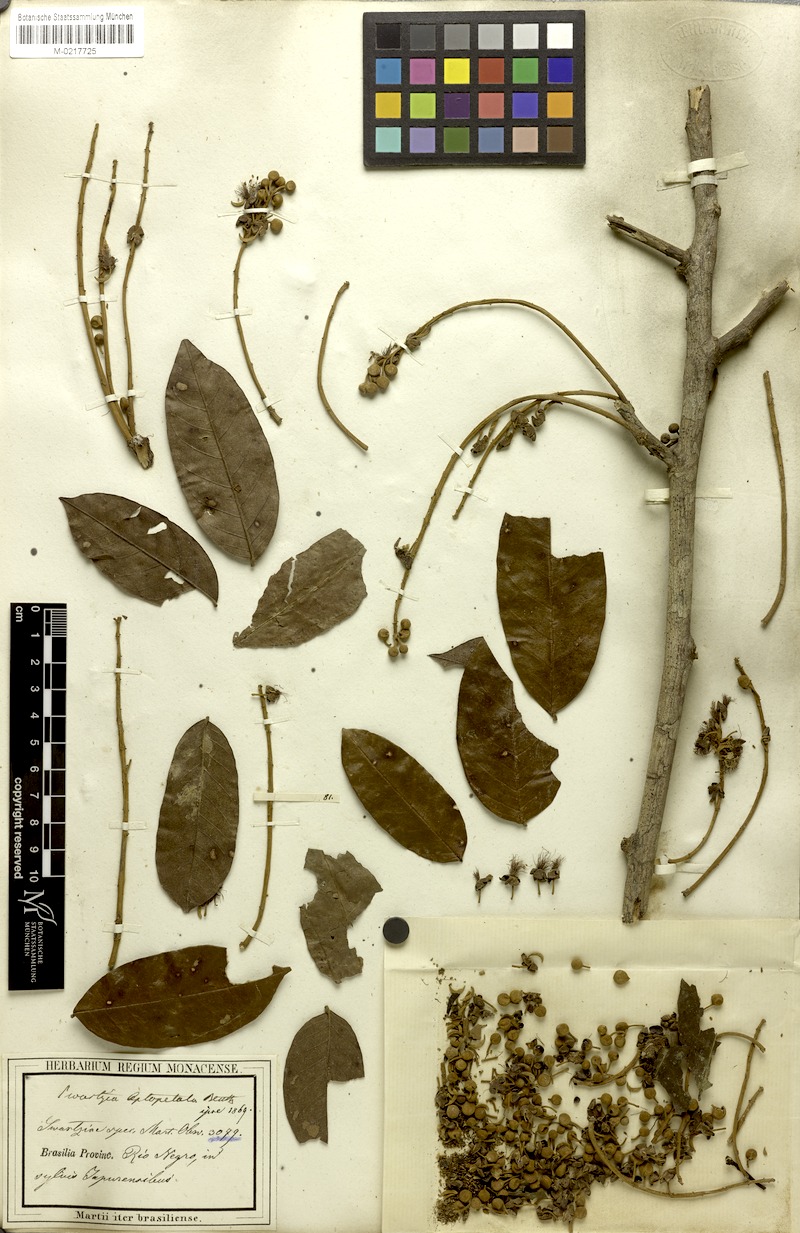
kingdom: Plantae
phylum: Tracheophyta
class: Magnoliopsida
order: Fabales
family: Fabaceae
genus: Swartzia
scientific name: Swartzia leptopetala
